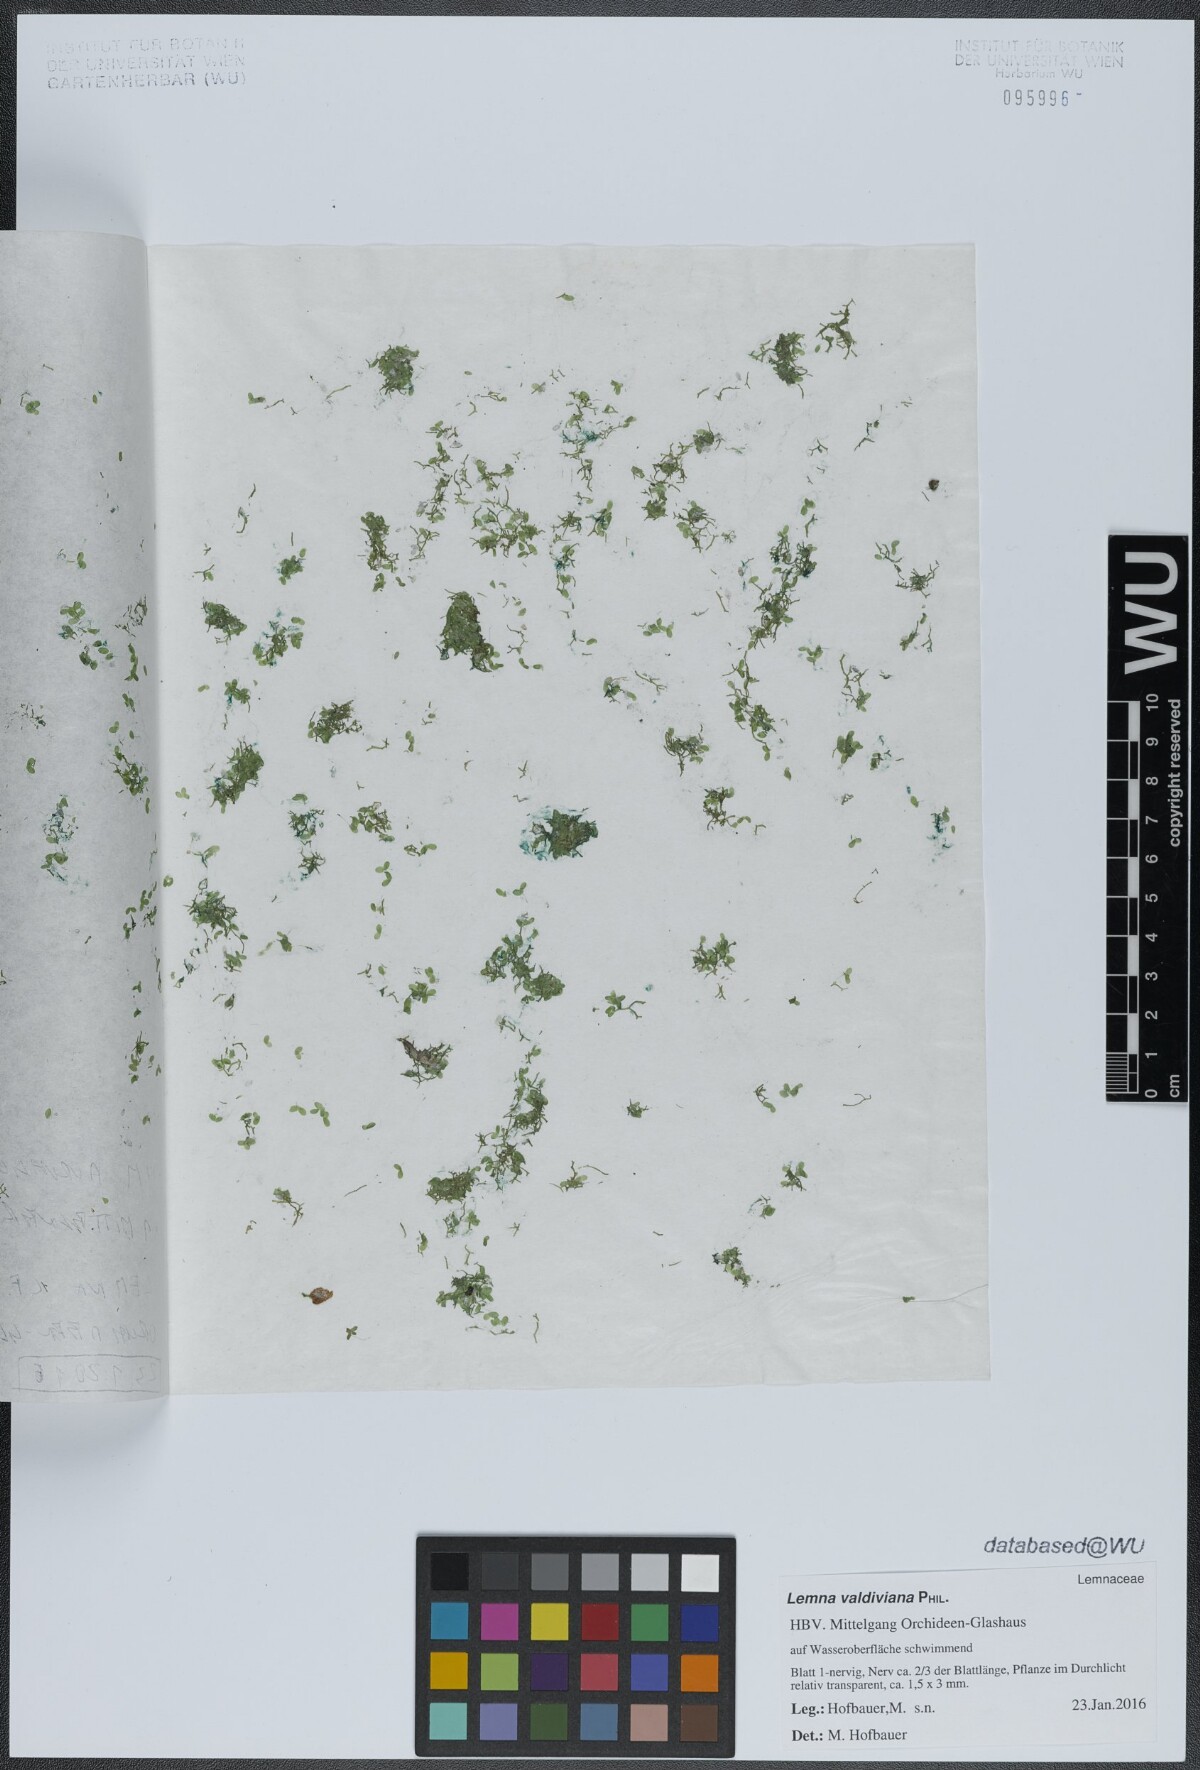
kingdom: Plantae
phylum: Tracheophyta
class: Liliopsida
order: Alismatales
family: Araceae
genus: Lemna
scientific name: Lemna valdiviana
